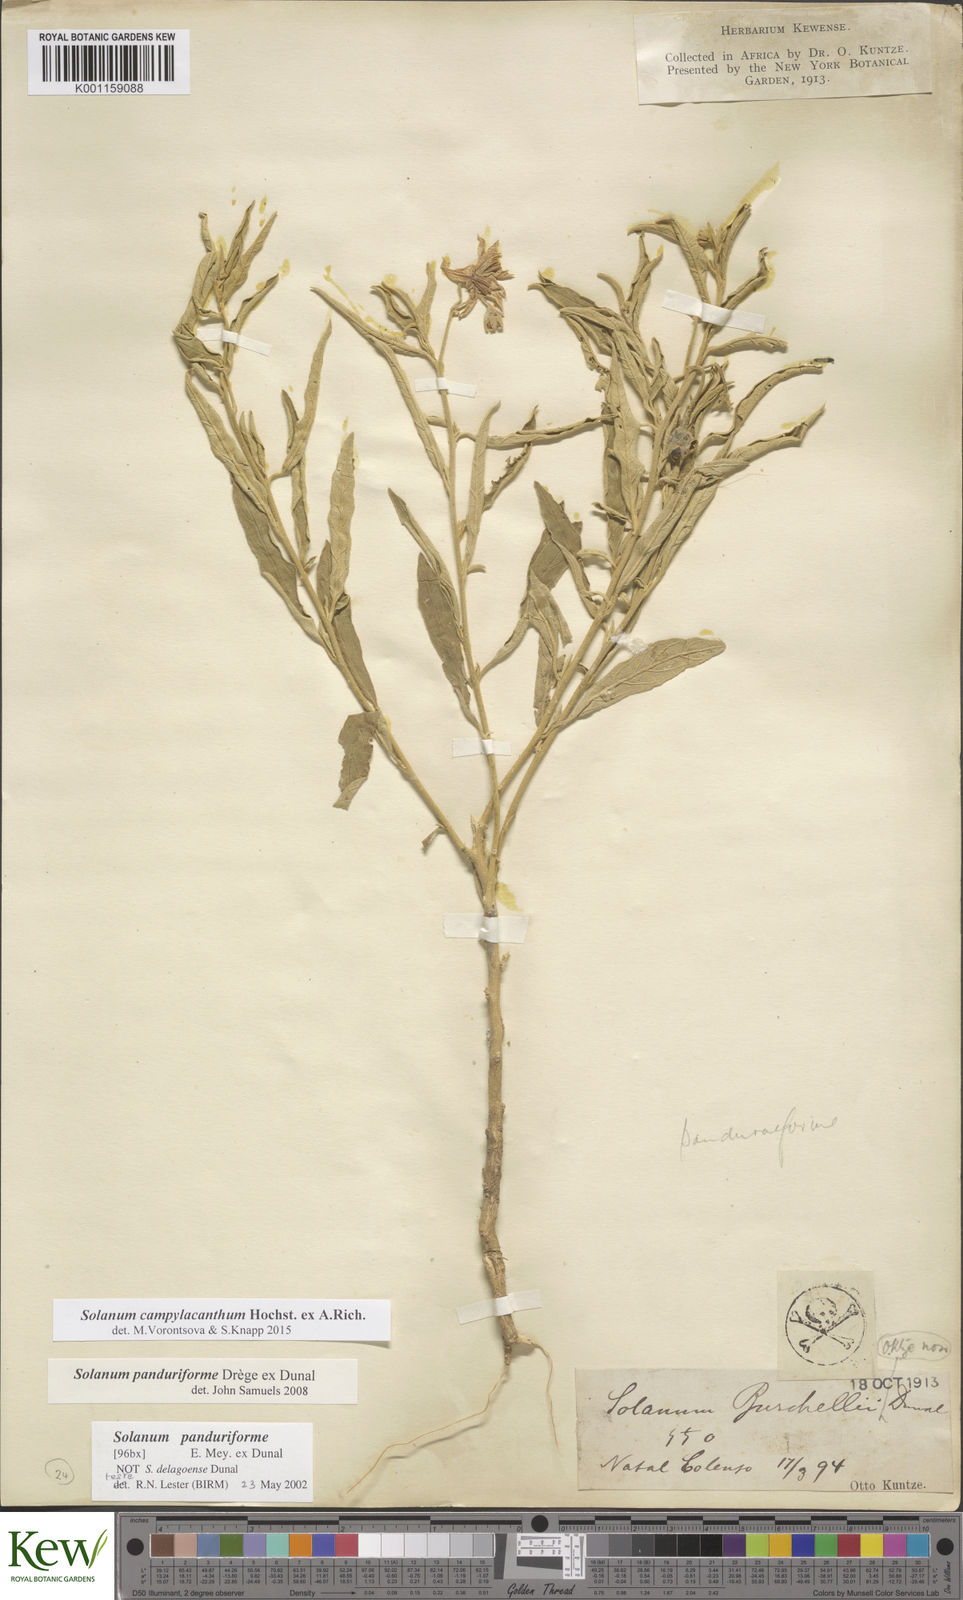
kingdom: Plantae
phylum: Tracheophyta
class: Magnoliopsida
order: Solanales
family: Solanaceae
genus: Solanum
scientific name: Solanum campylacanthum
